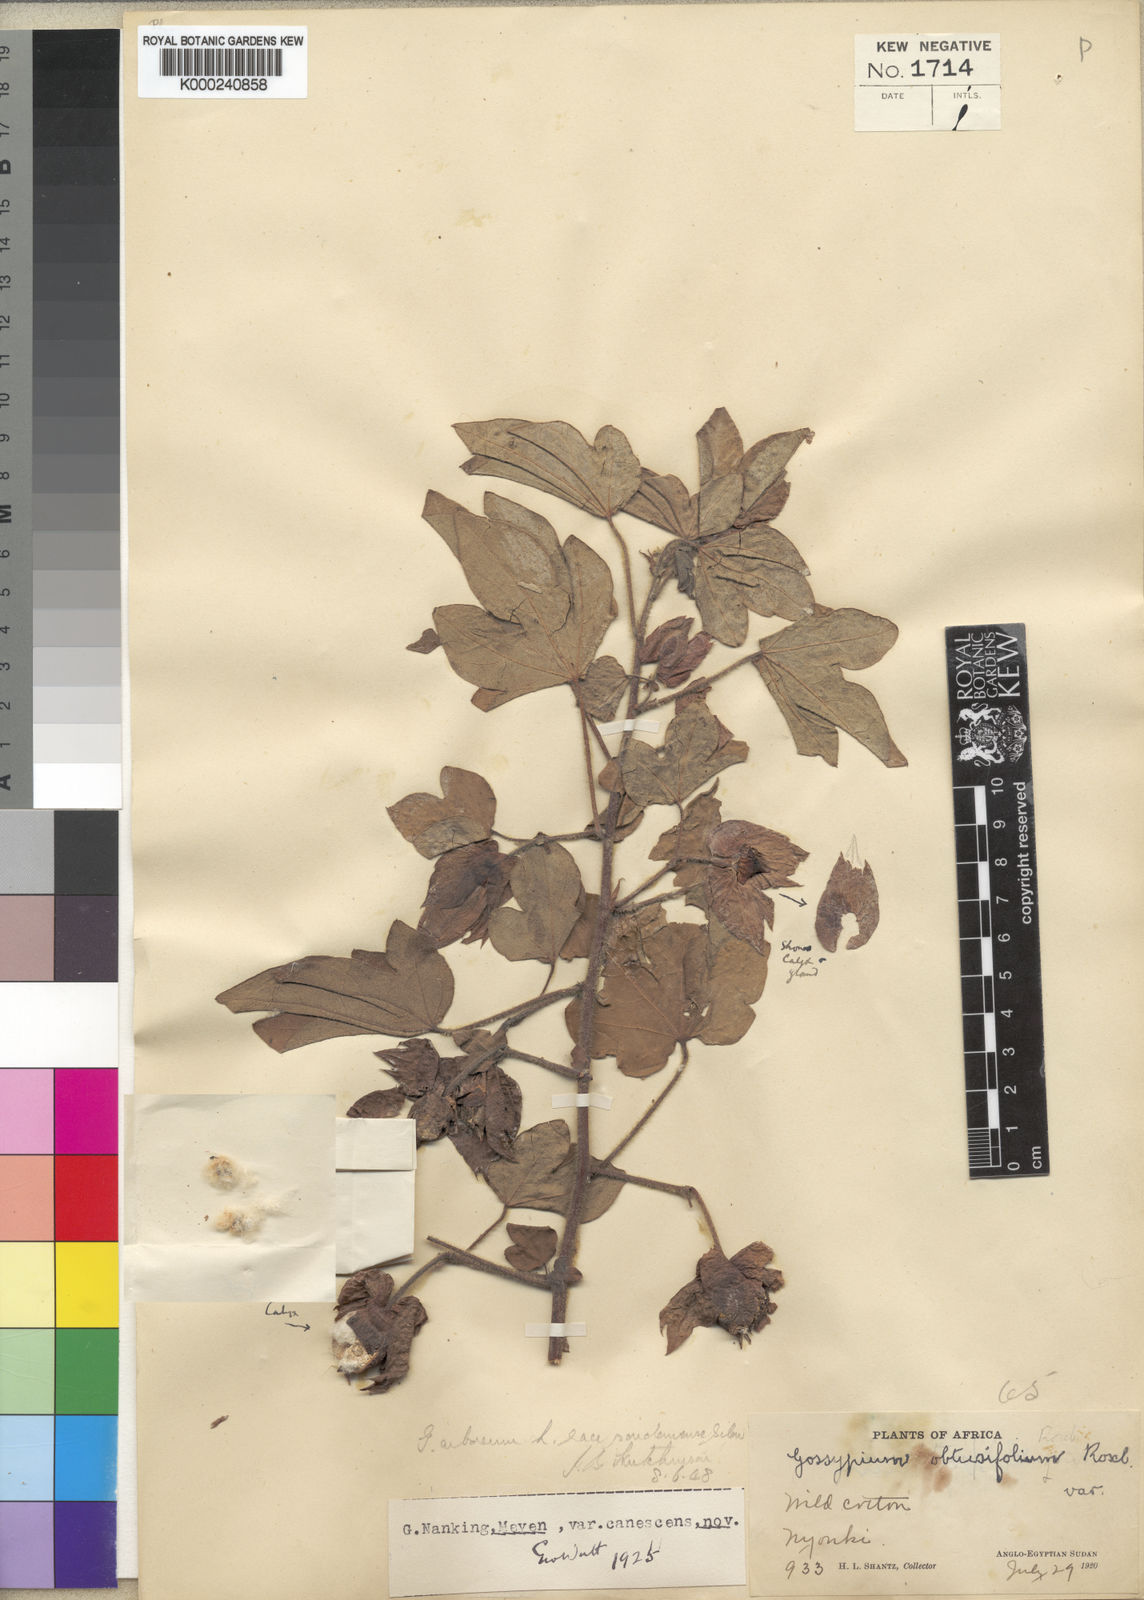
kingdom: Plantae
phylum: Tracheophyta
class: Magnoliopsida
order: Malvales
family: Malvaceae
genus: Gossypium
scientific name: Gossypium arboreum
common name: Tree cotton
